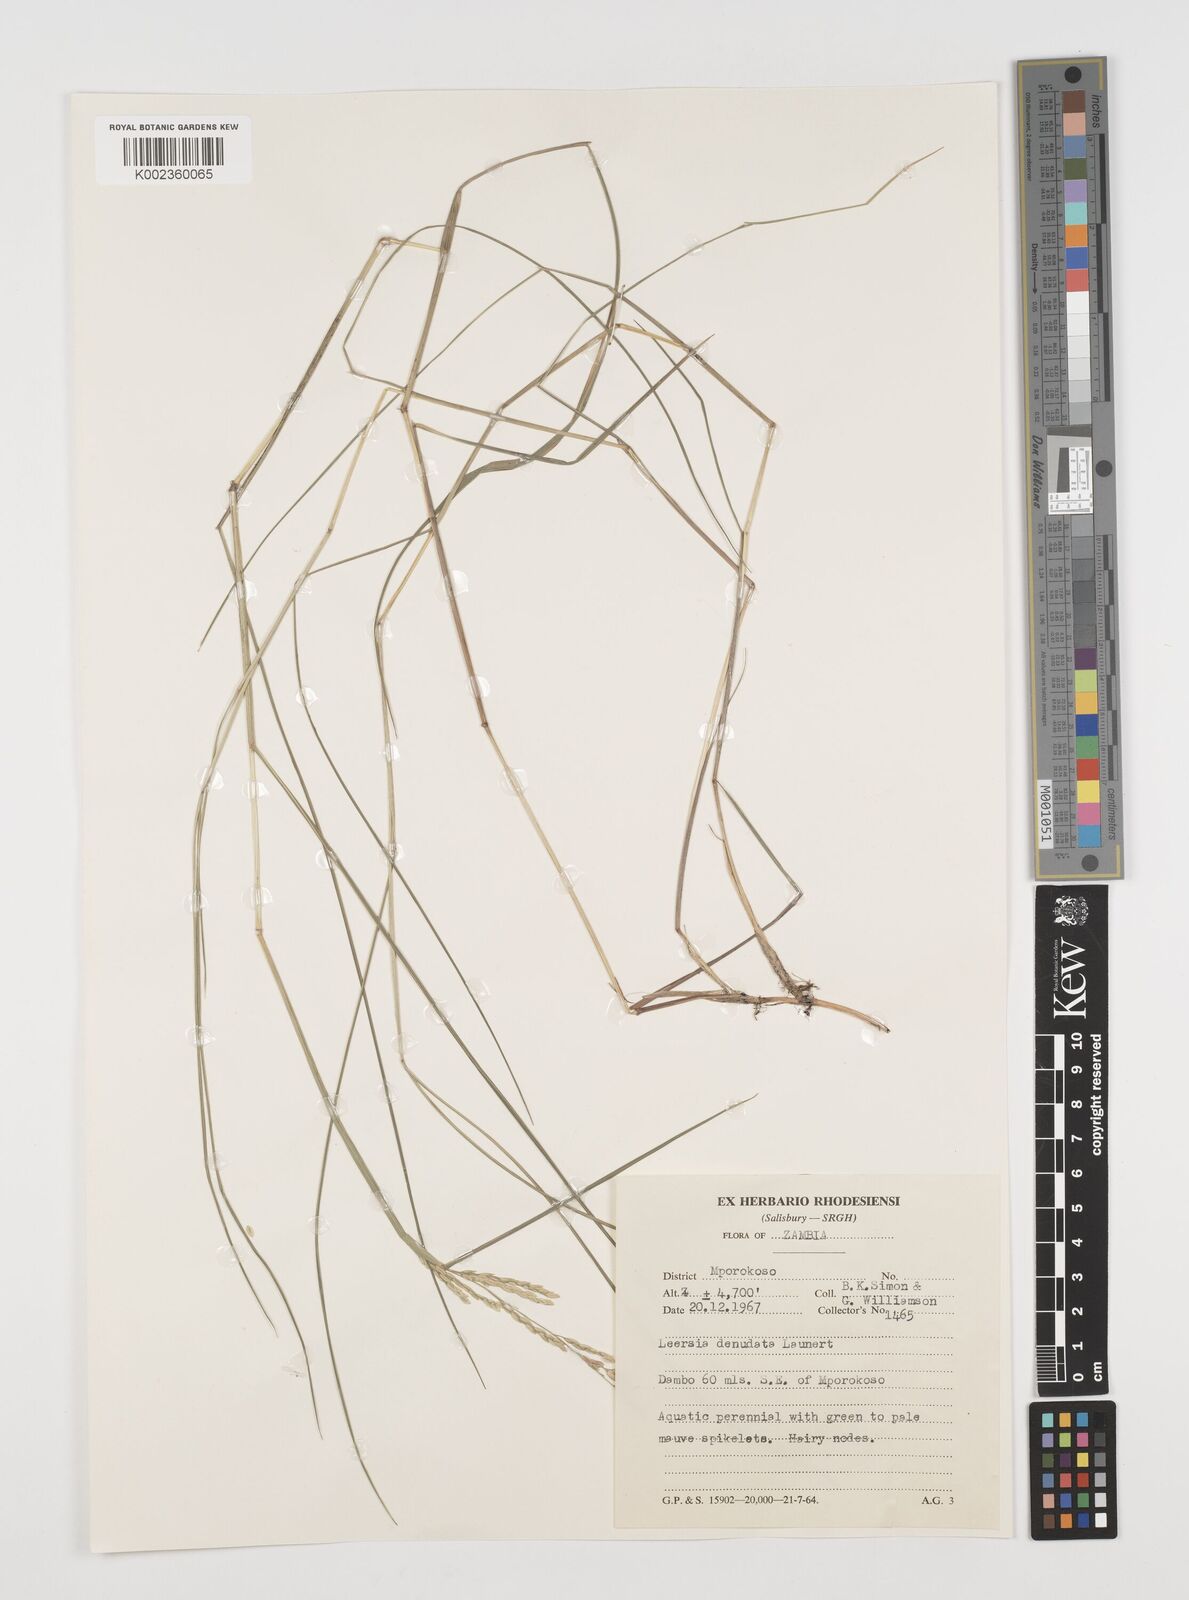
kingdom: Plantae
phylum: Tracheophyta
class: Liliopsida
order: Poales
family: Poaceae
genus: Leersia
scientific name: Leersia denudata
